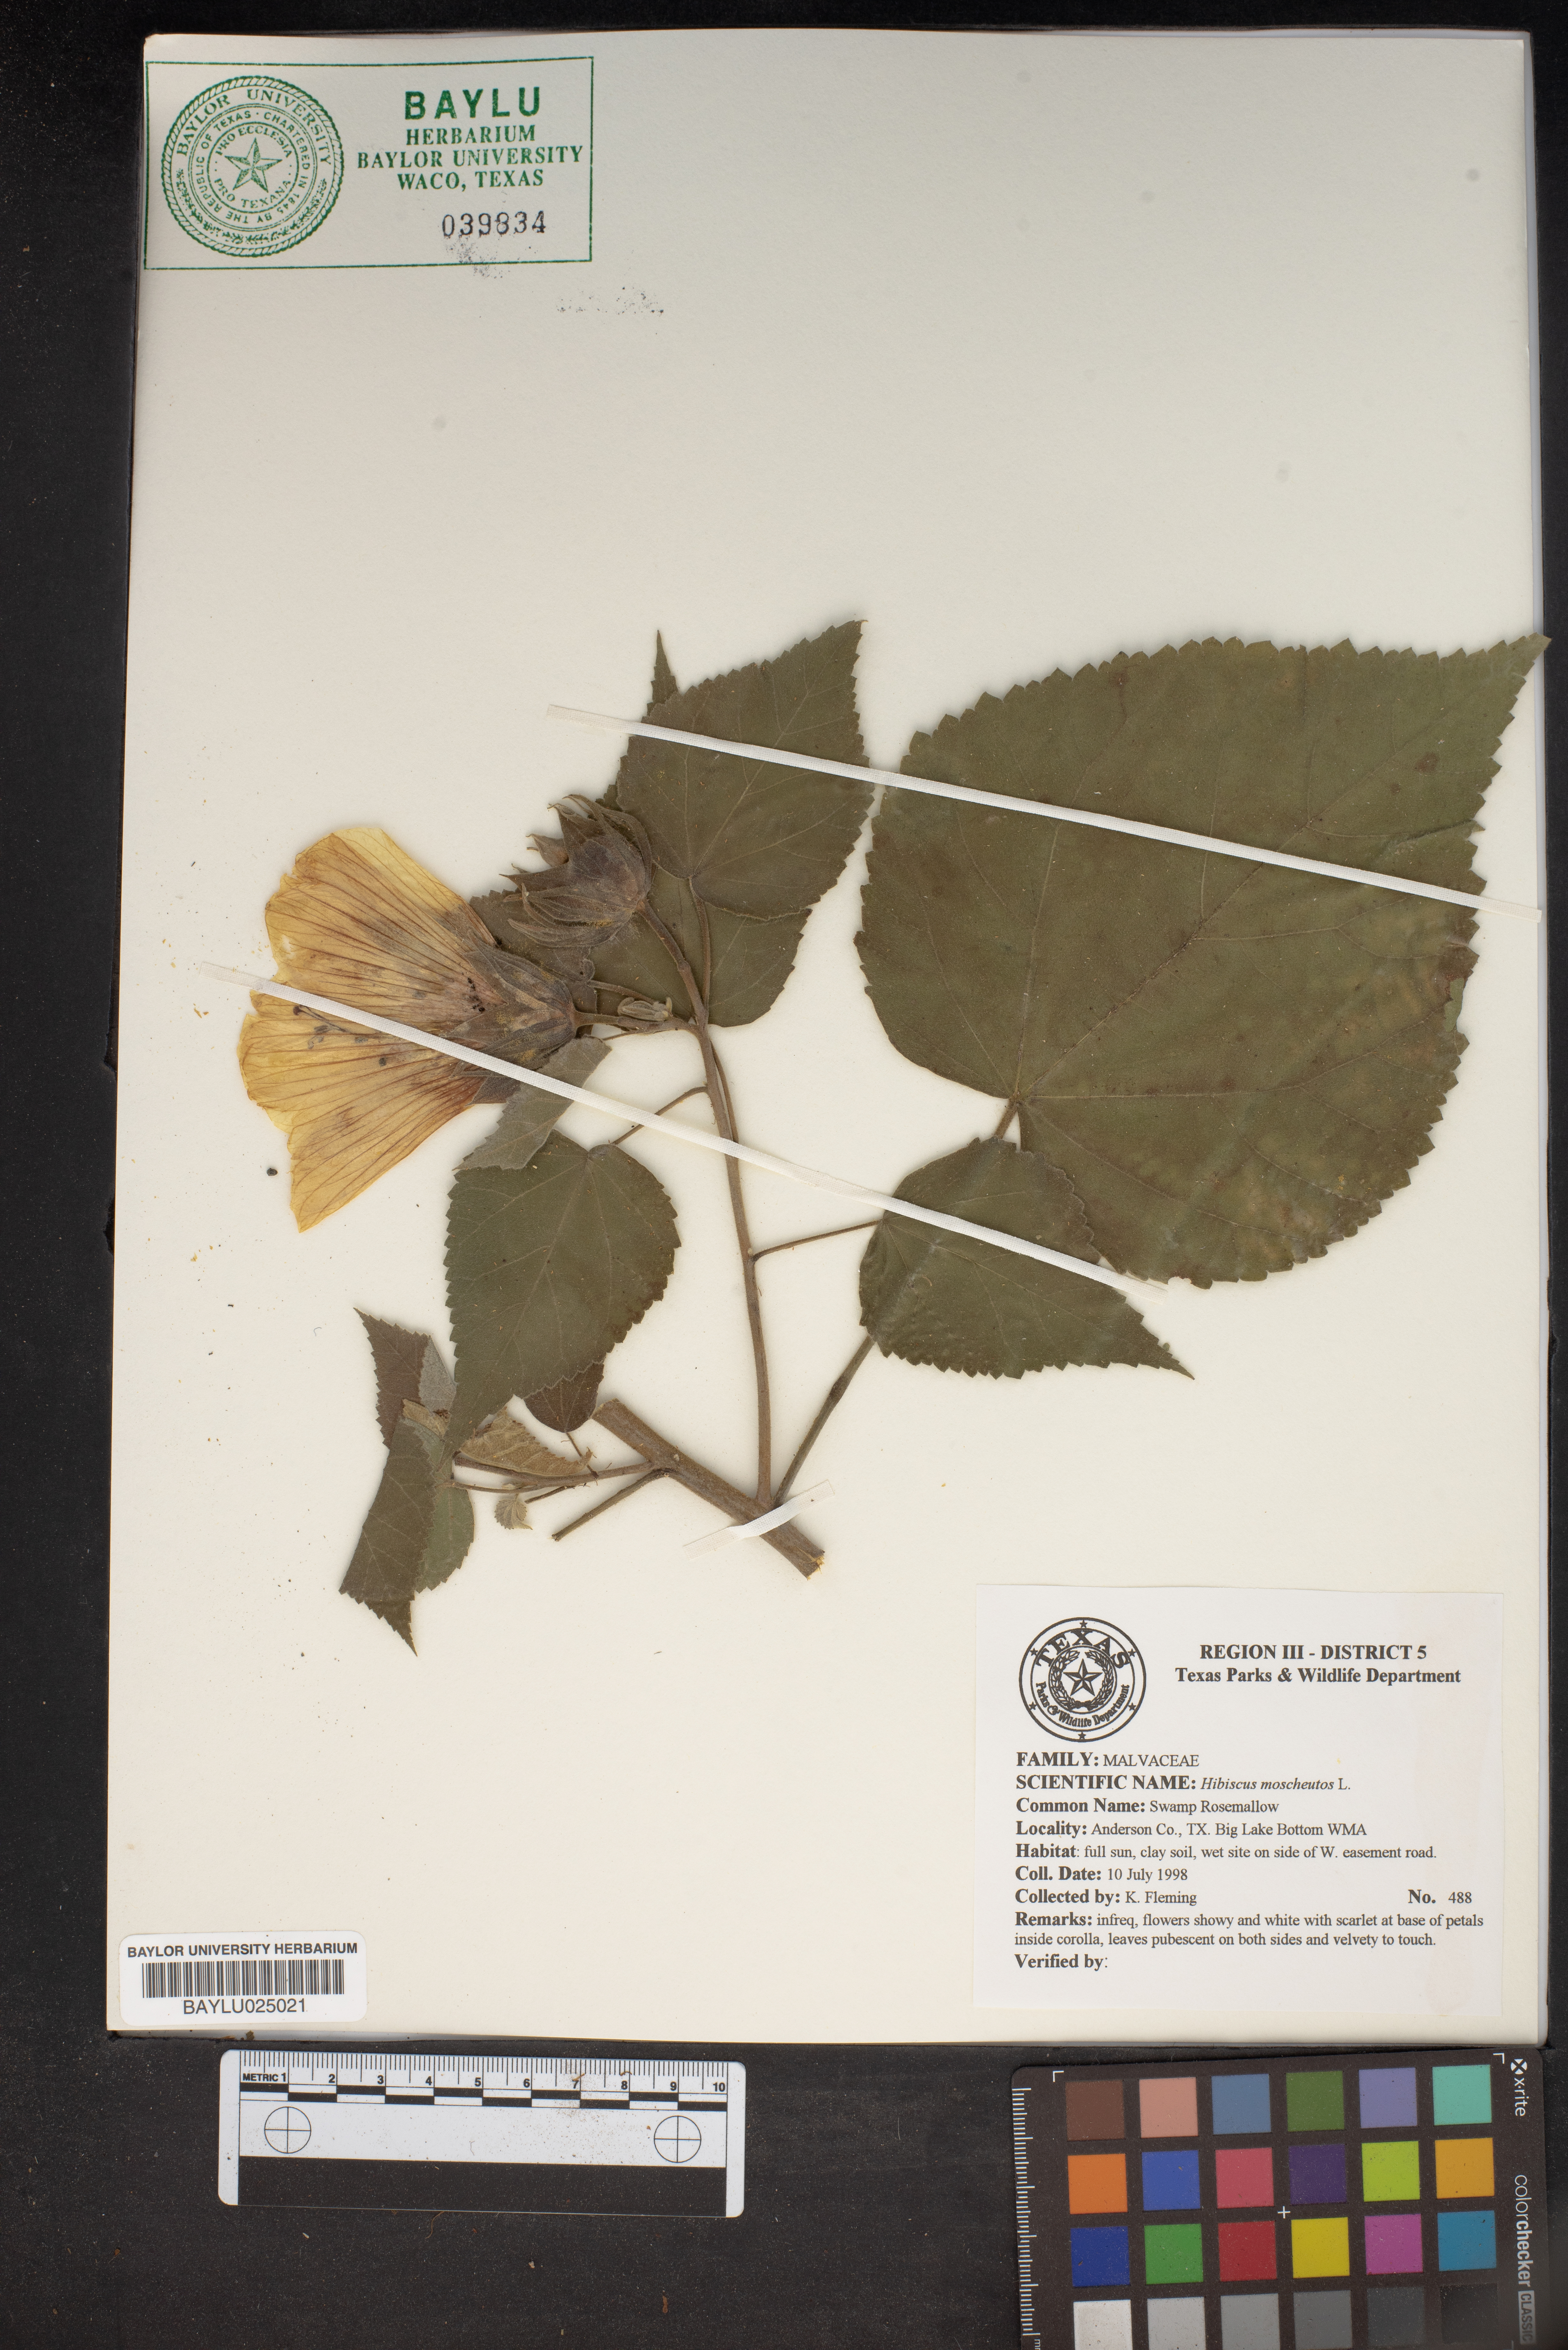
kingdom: Plantae
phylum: Tracheophyta
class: Magnoliopsida
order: Malvales
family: Malvaceae
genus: Hibiscus
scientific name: Hibiscus moscheutos
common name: Common rose-mallow
